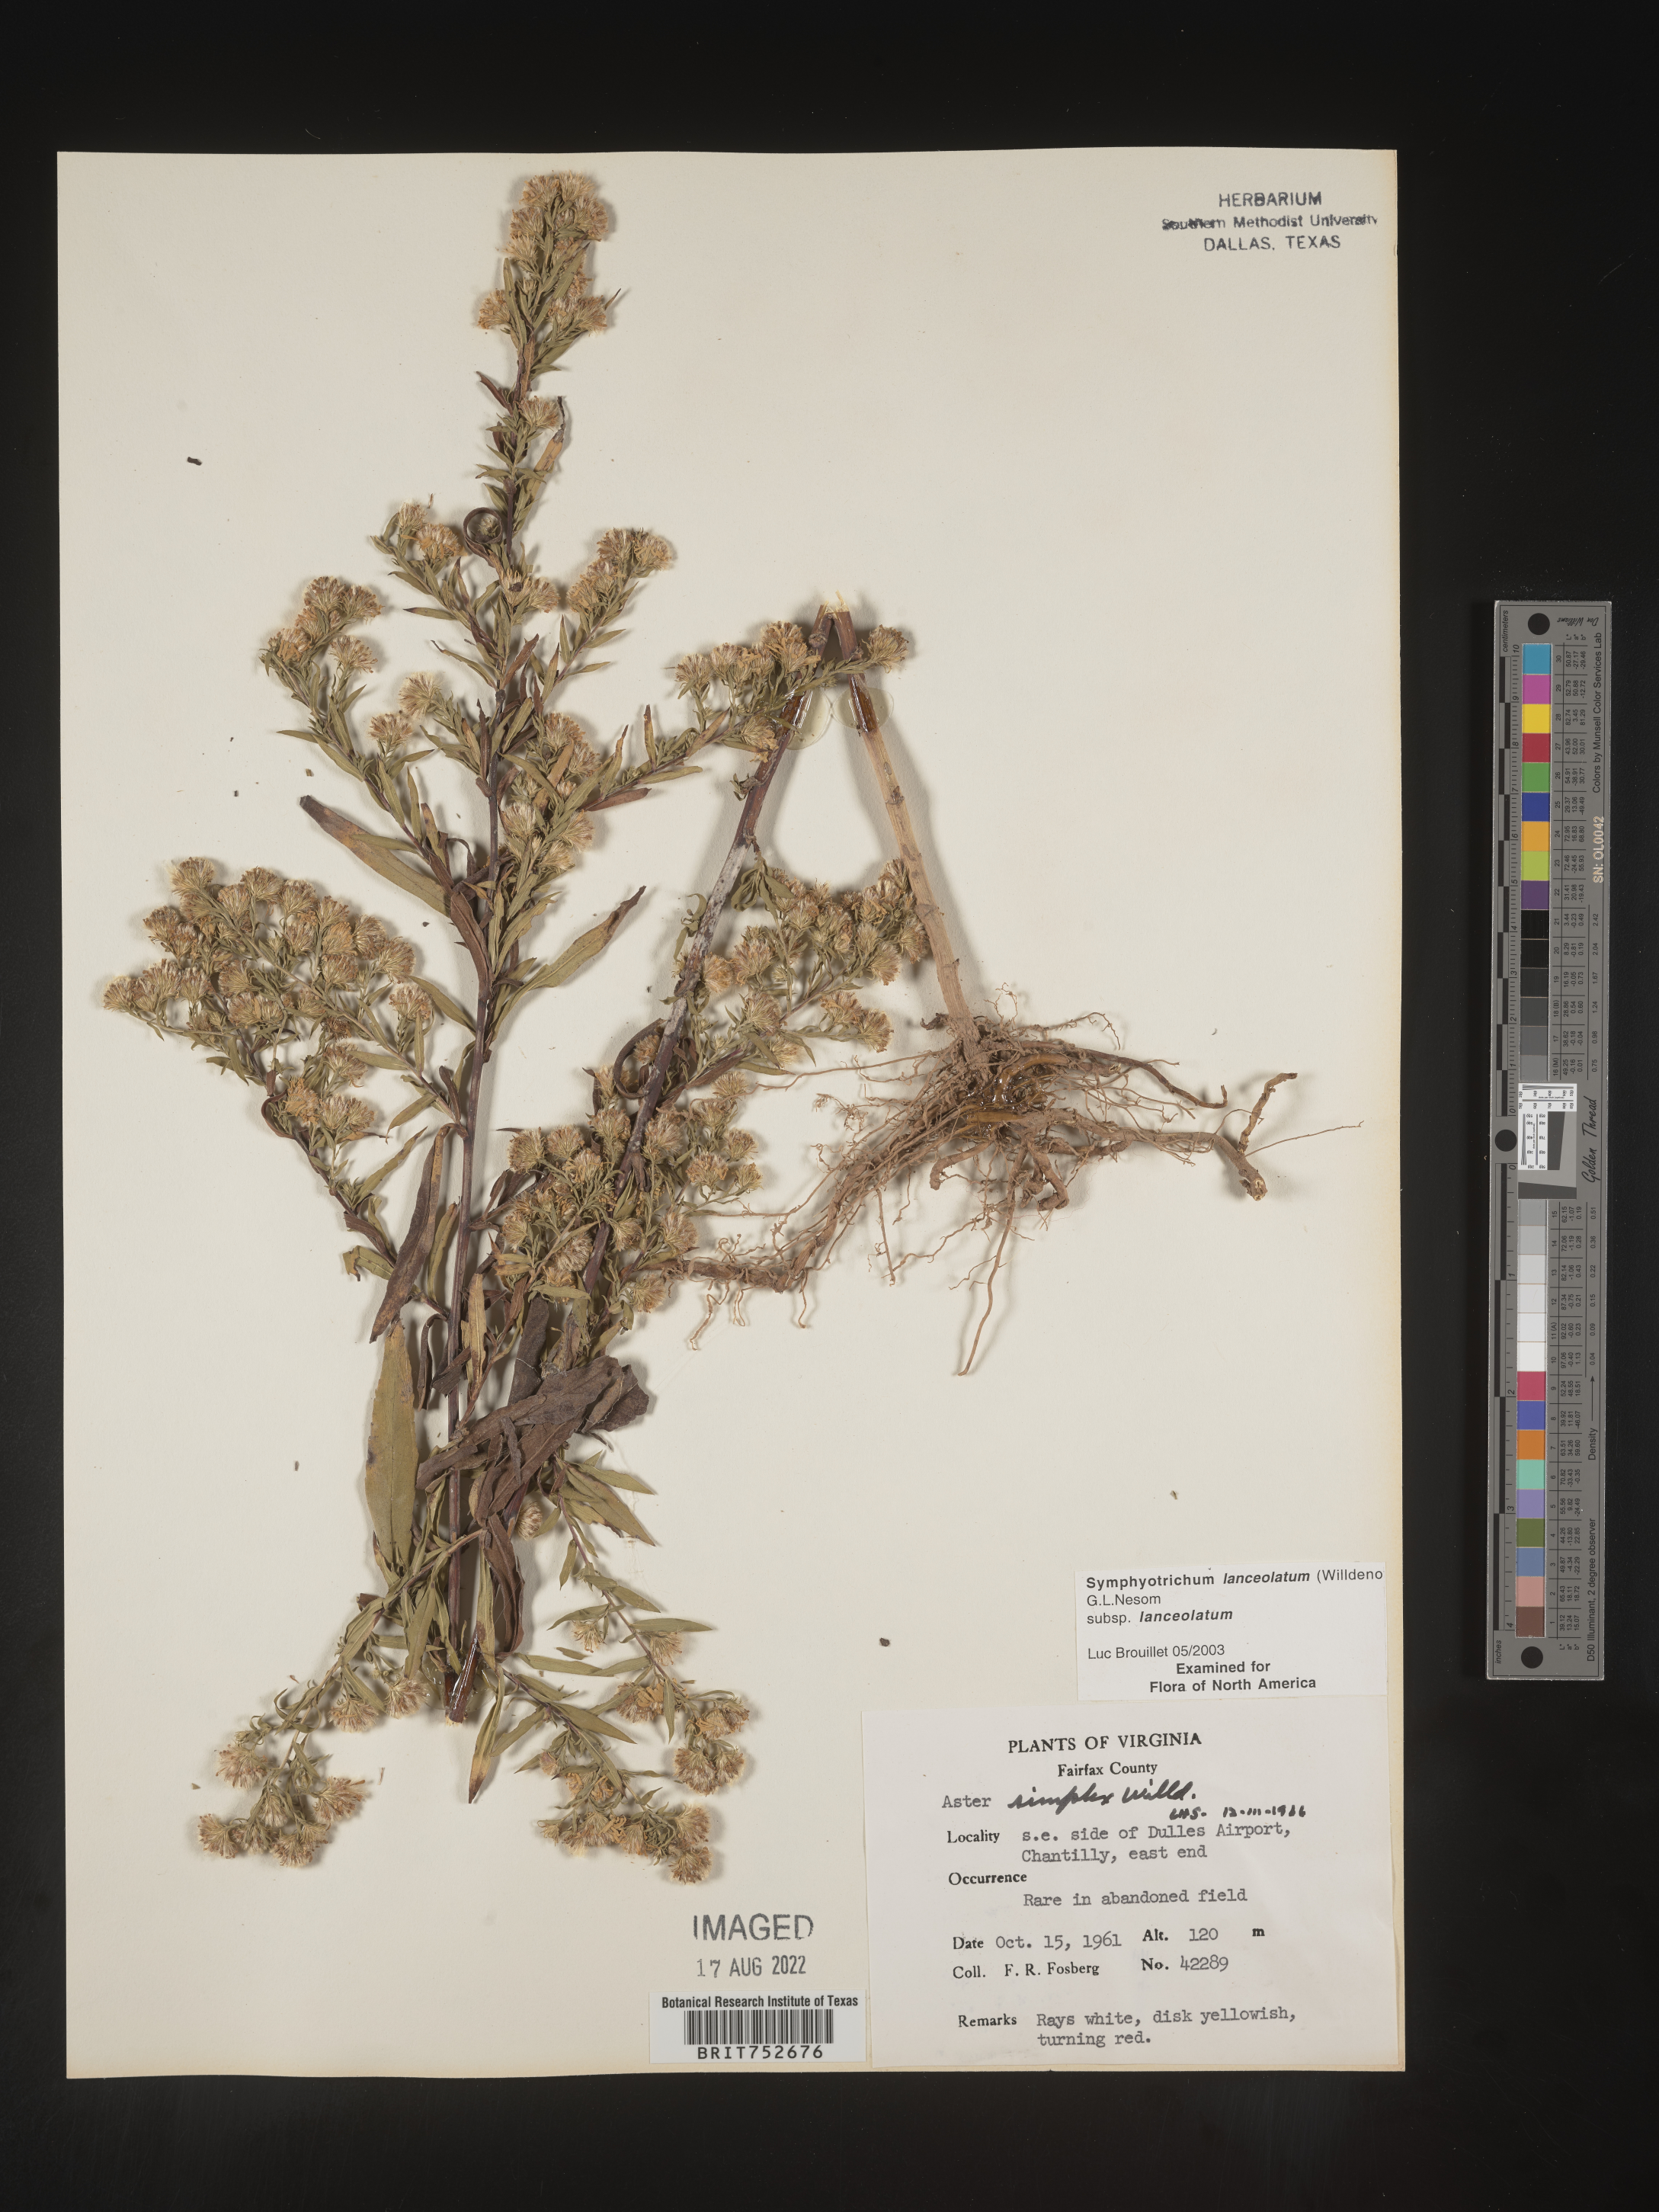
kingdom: Plantae
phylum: Tracheophyta
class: Magnoliopsida
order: Asterales
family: Asteraceae
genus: Symphyotrichum
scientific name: Symphyotrichum lanceolatum
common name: Panicled aster
